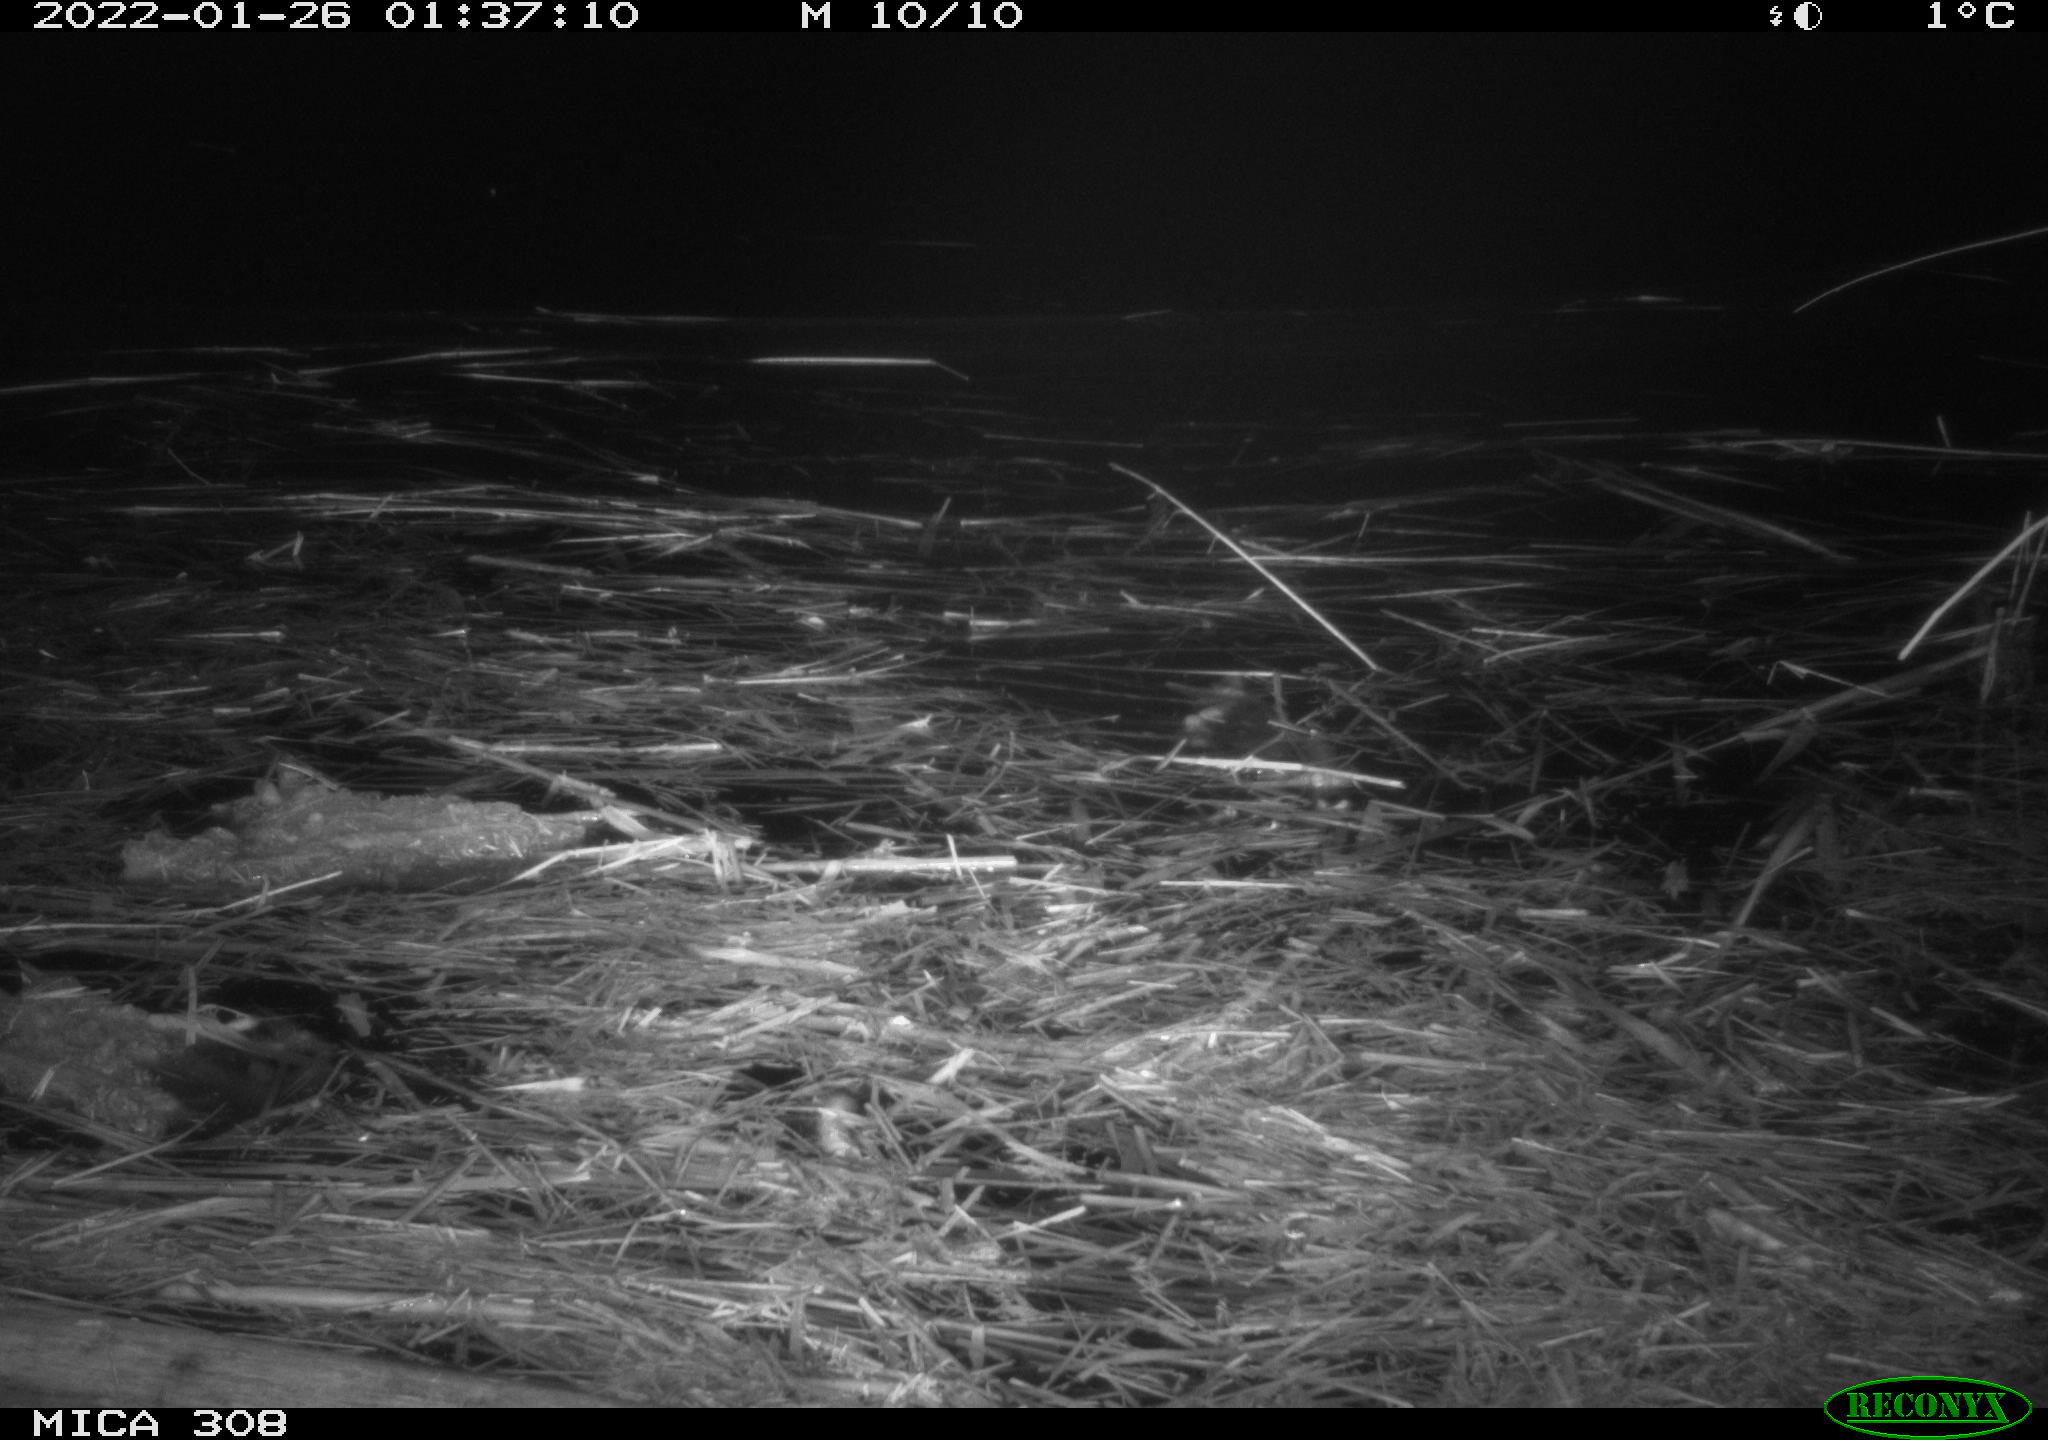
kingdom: Animalia
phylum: Chordata
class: Mammalia
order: Rodentia
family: Muridae
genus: Rattus
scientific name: Rattus norvegicus
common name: Brown rat
